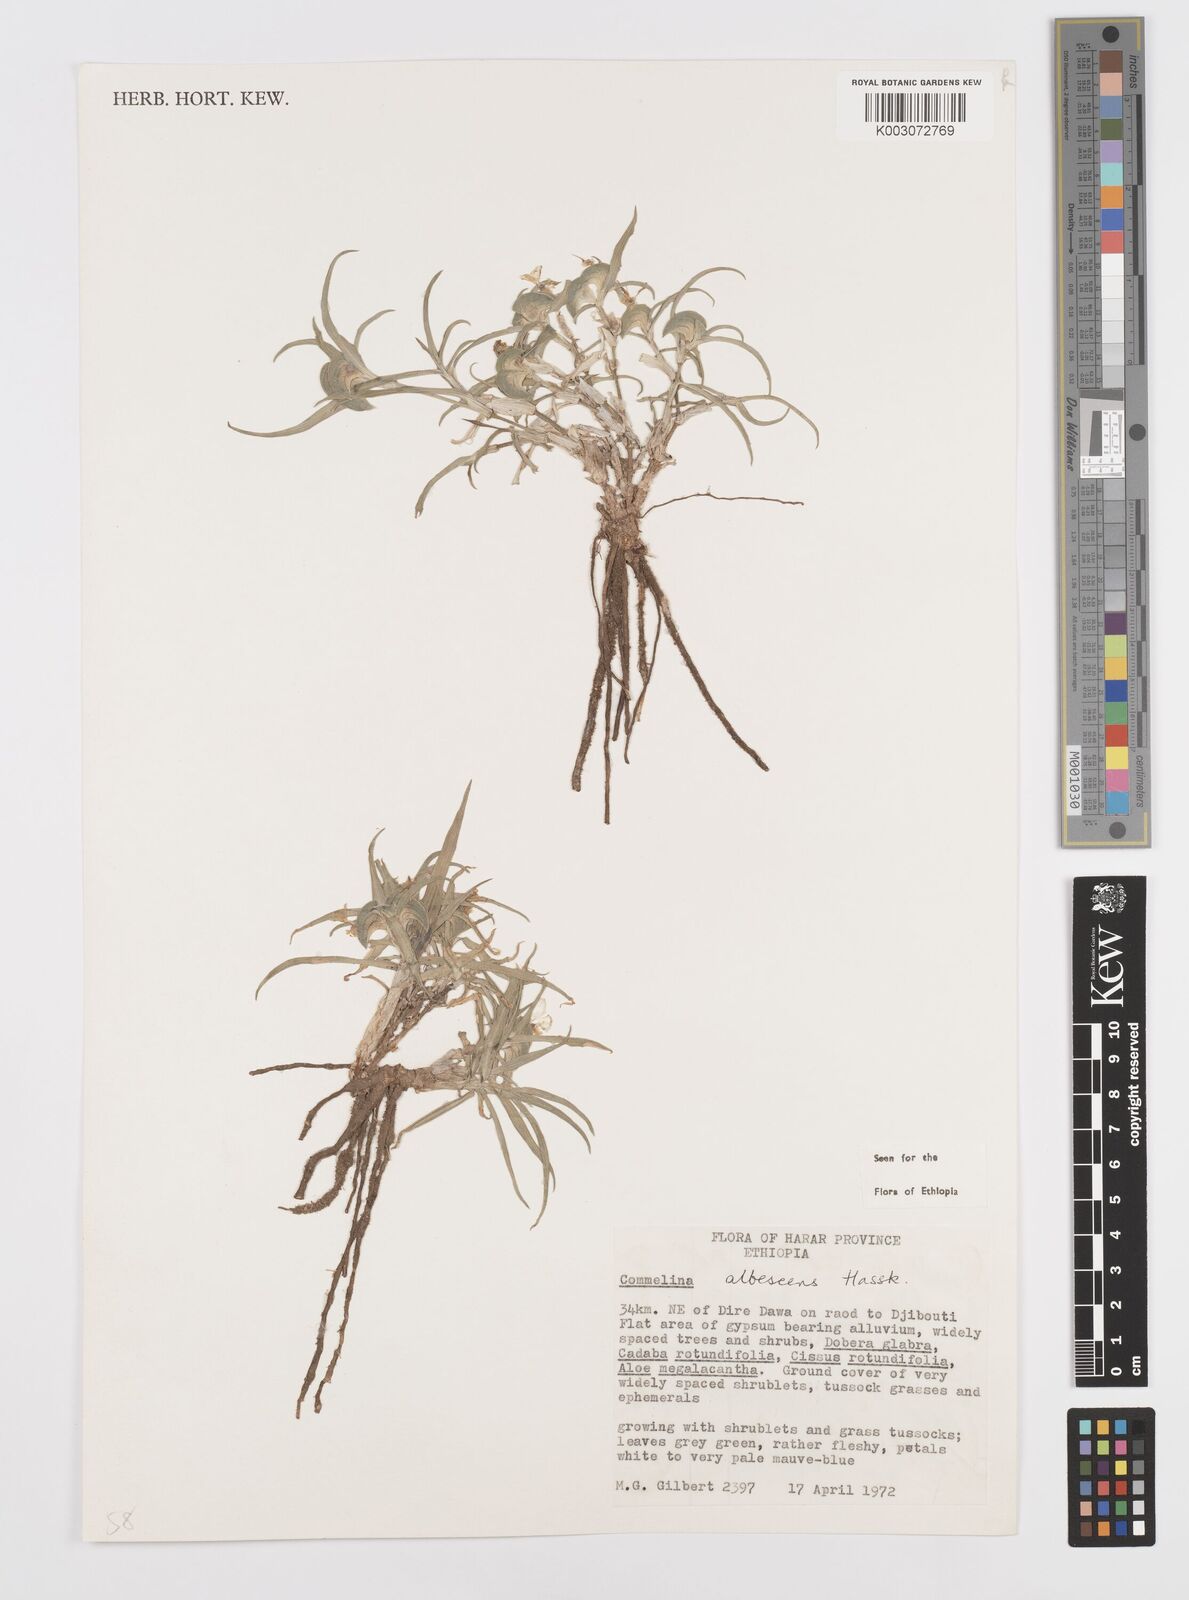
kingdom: Plantae
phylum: Tracheophyta
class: Liliopsida
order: Commelinales
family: Commelinaceae
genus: Commelina
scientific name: Commelina albescens
